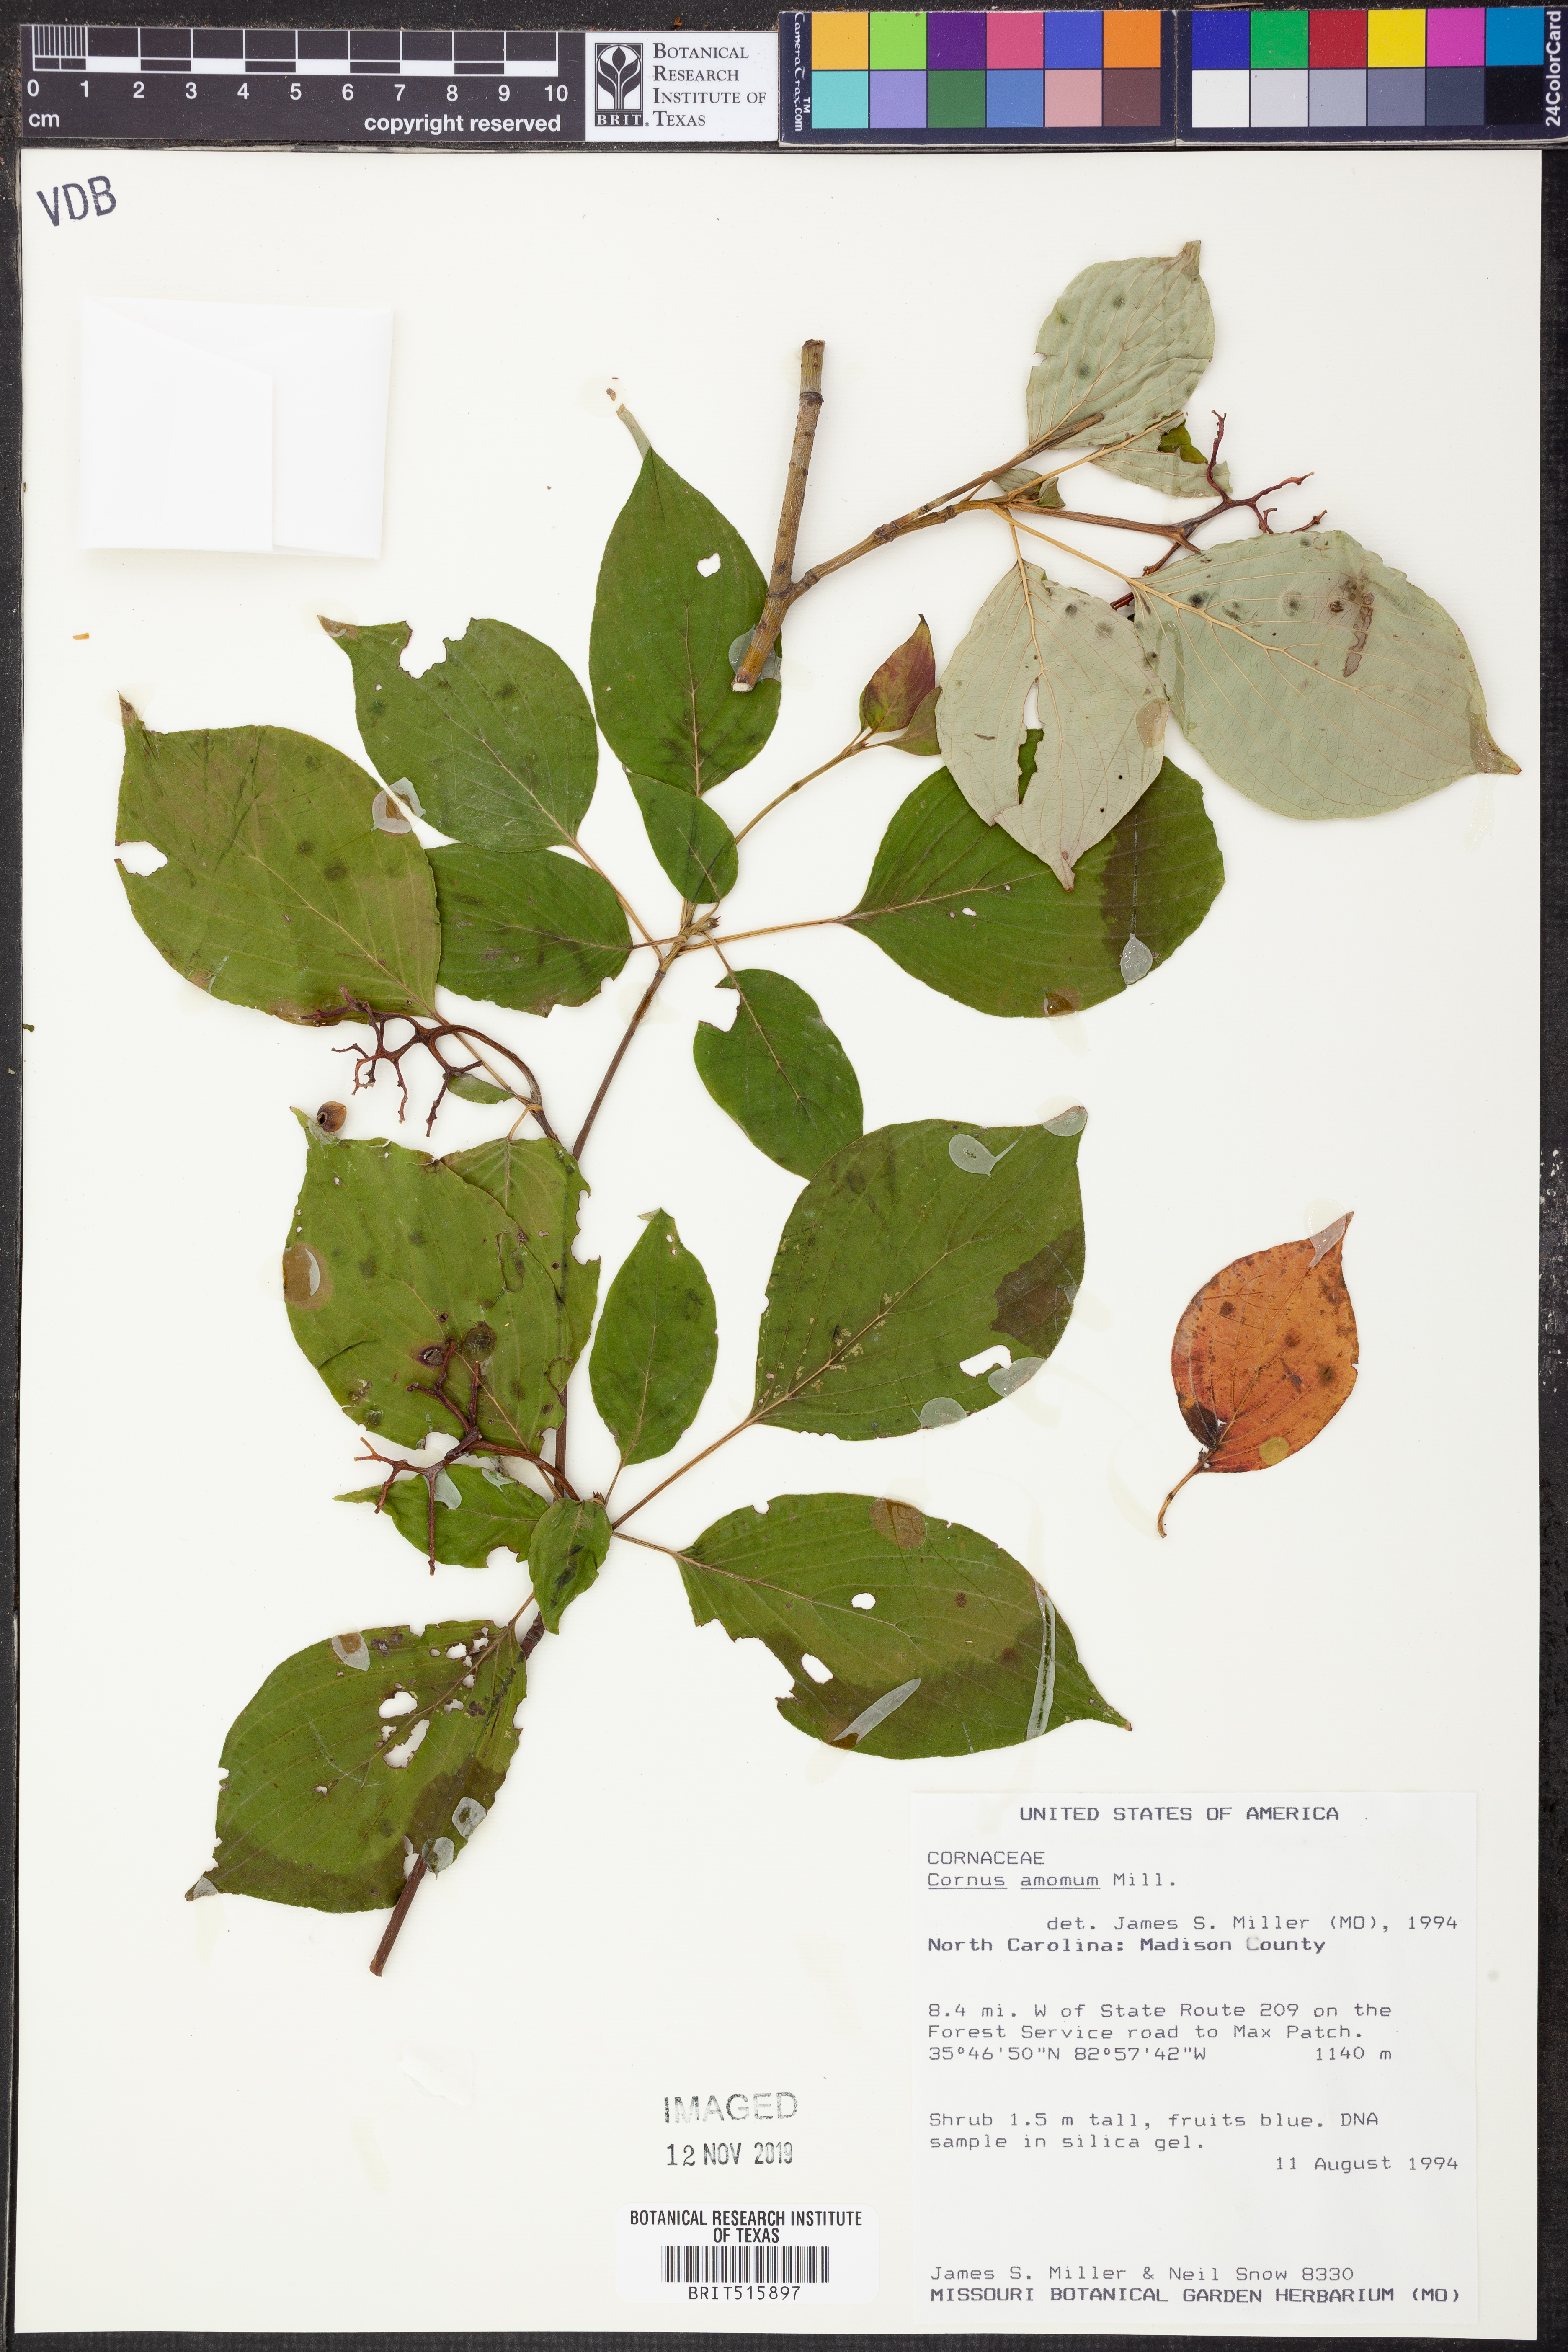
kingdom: Plantae
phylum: Tracheophyta
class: Magnoliopsida
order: Cornales
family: Cornaceae
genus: Cornus
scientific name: Cornus amomum
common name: Silky dogwood
